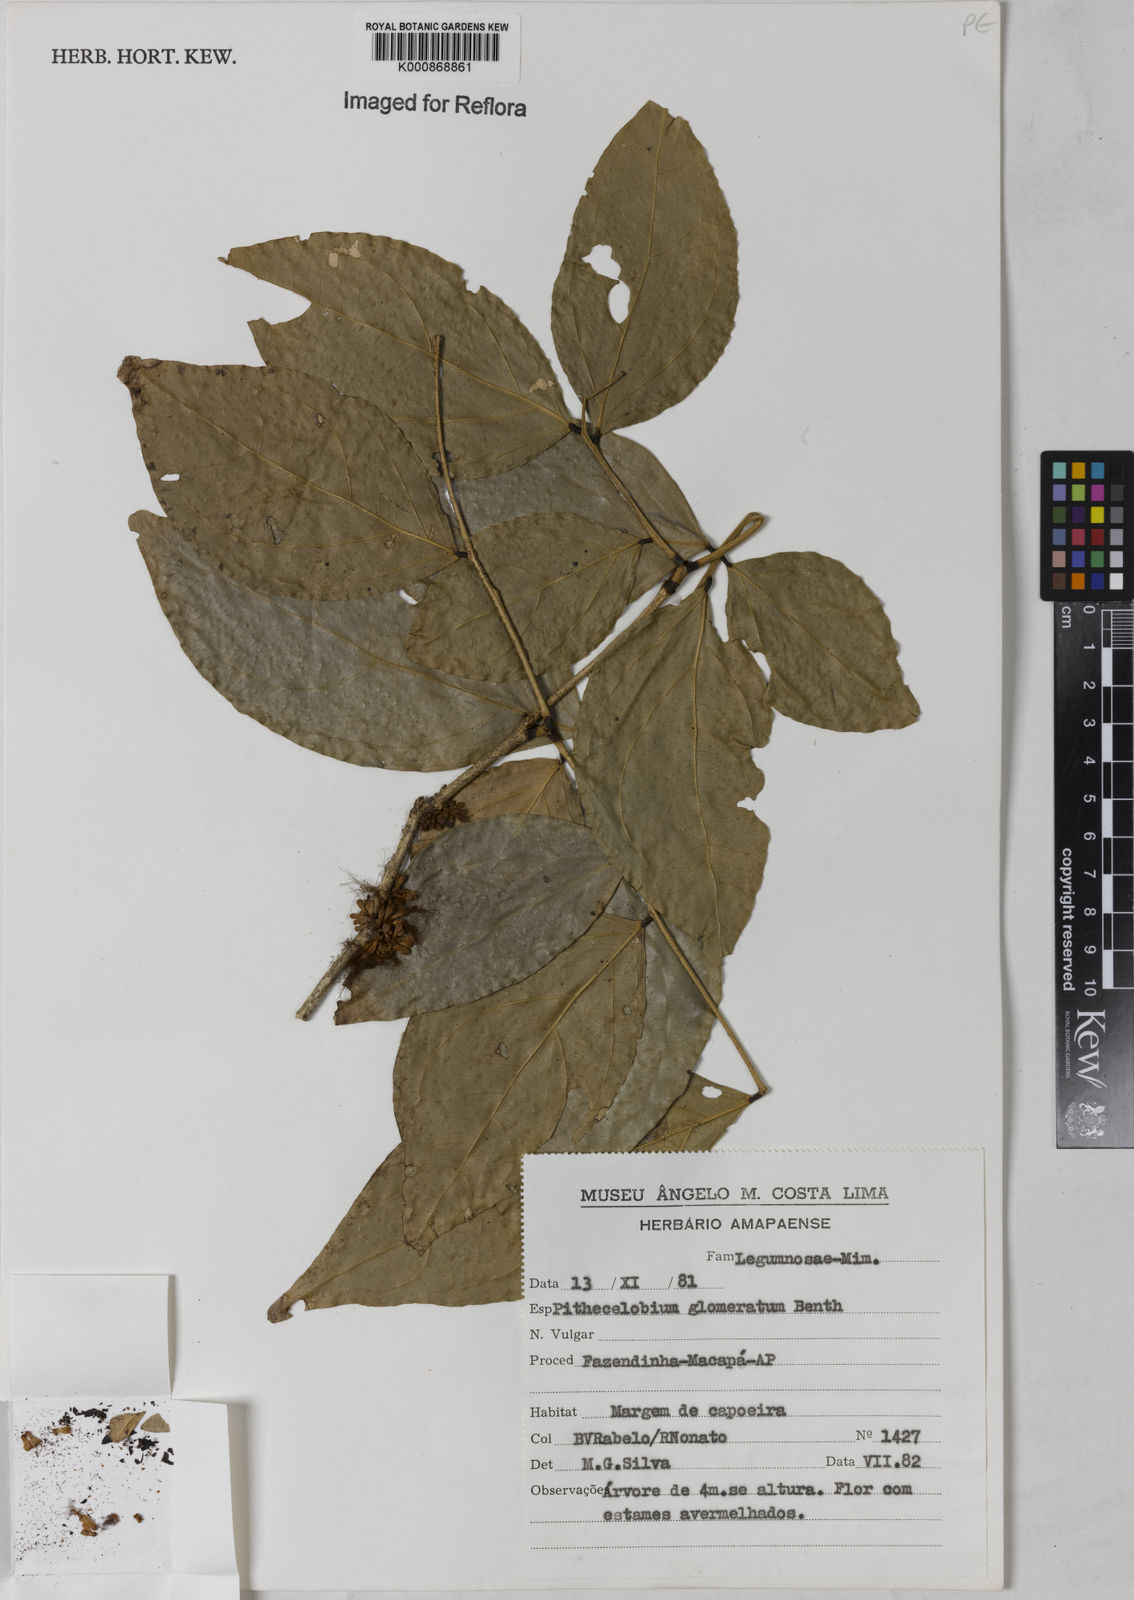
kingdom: Plantae
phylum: Tracheophyta
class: Magnoliopsida
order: Fabales
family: Fabaceae
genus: Zygia
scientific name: Zygia cataractae
